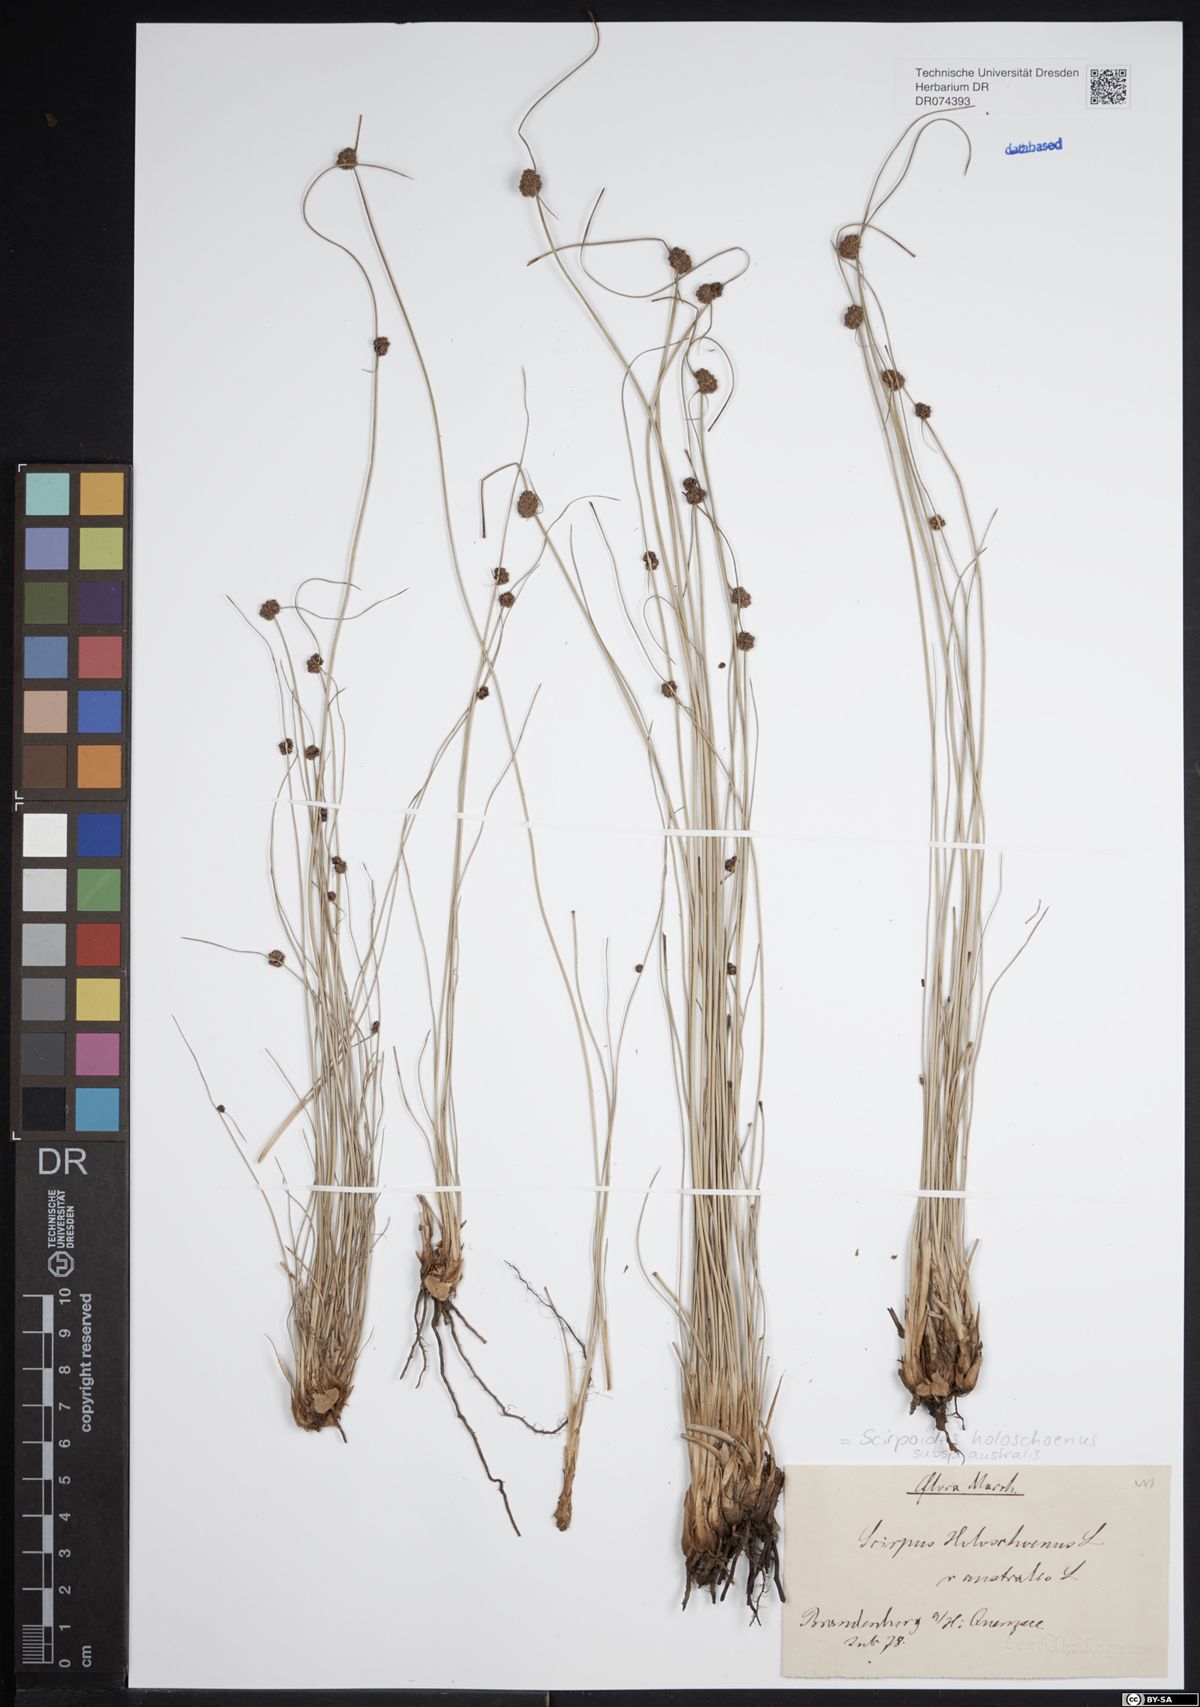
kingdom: Plantae
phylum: Tracheophyta
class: Liliopsida
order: Poales
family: Cyperaceae
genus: Scirpoides
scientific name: Scirpoides holoschoenus
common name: Round-headed club-rush
